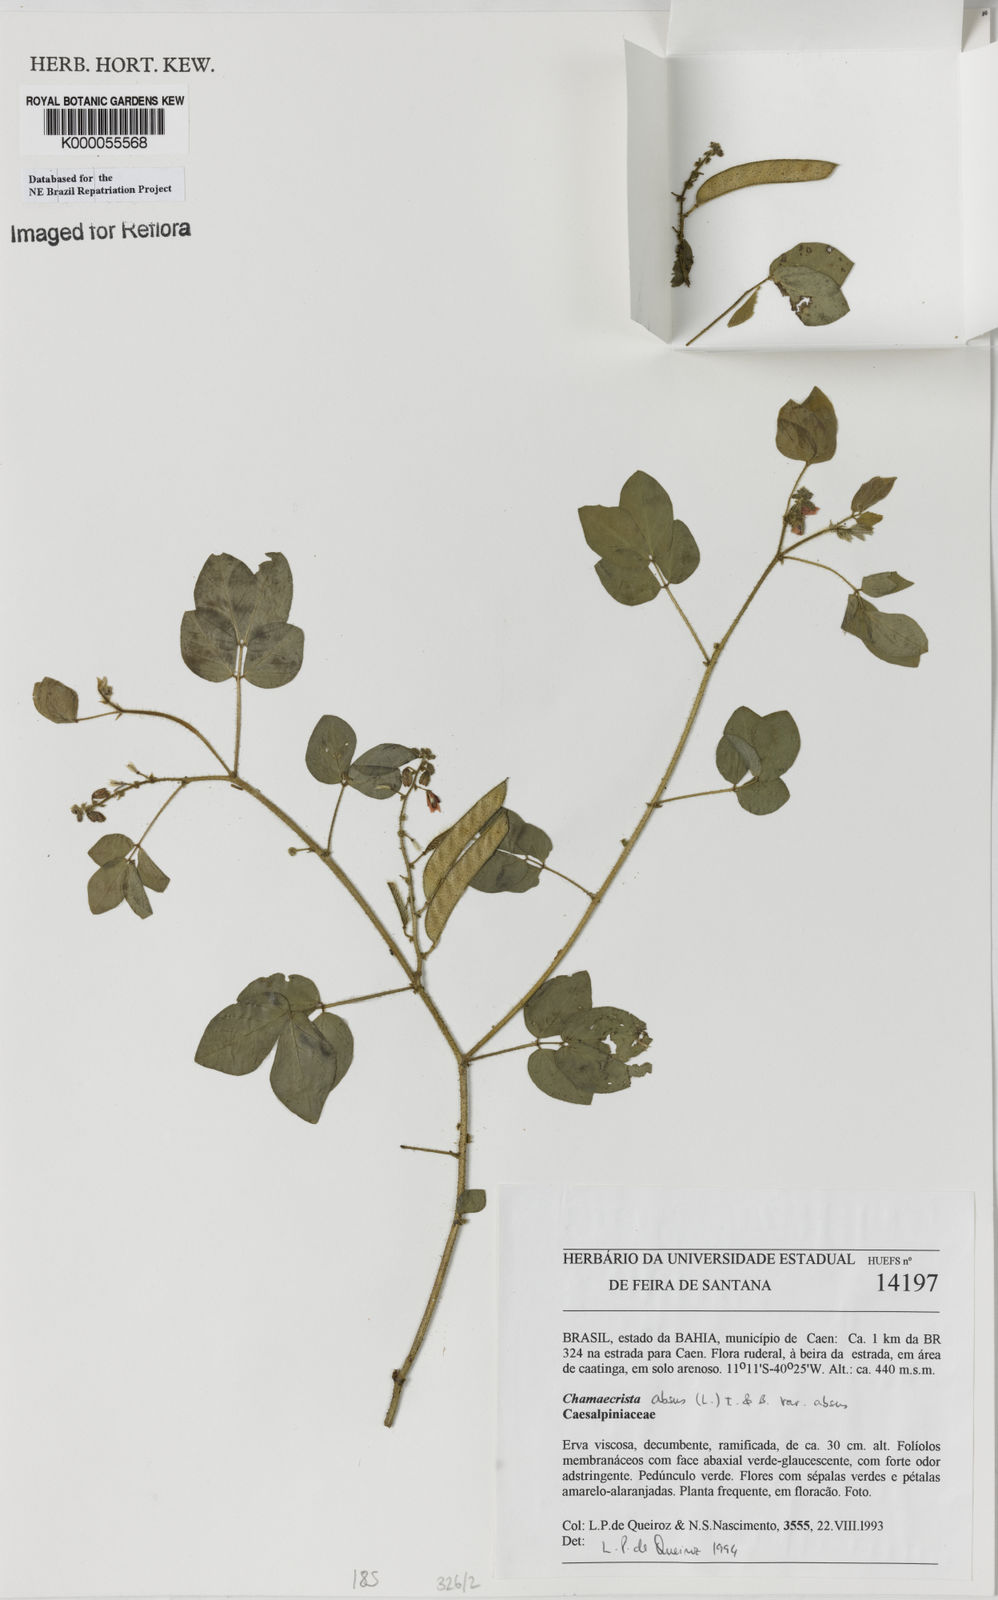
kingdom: Plantae
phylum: Tracheophyta
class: Magnoliopsida
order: Fabales
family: Fabaceae
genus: Chamaecrista
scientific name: Chamaecrista absus
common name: Tropical sensitive pea
